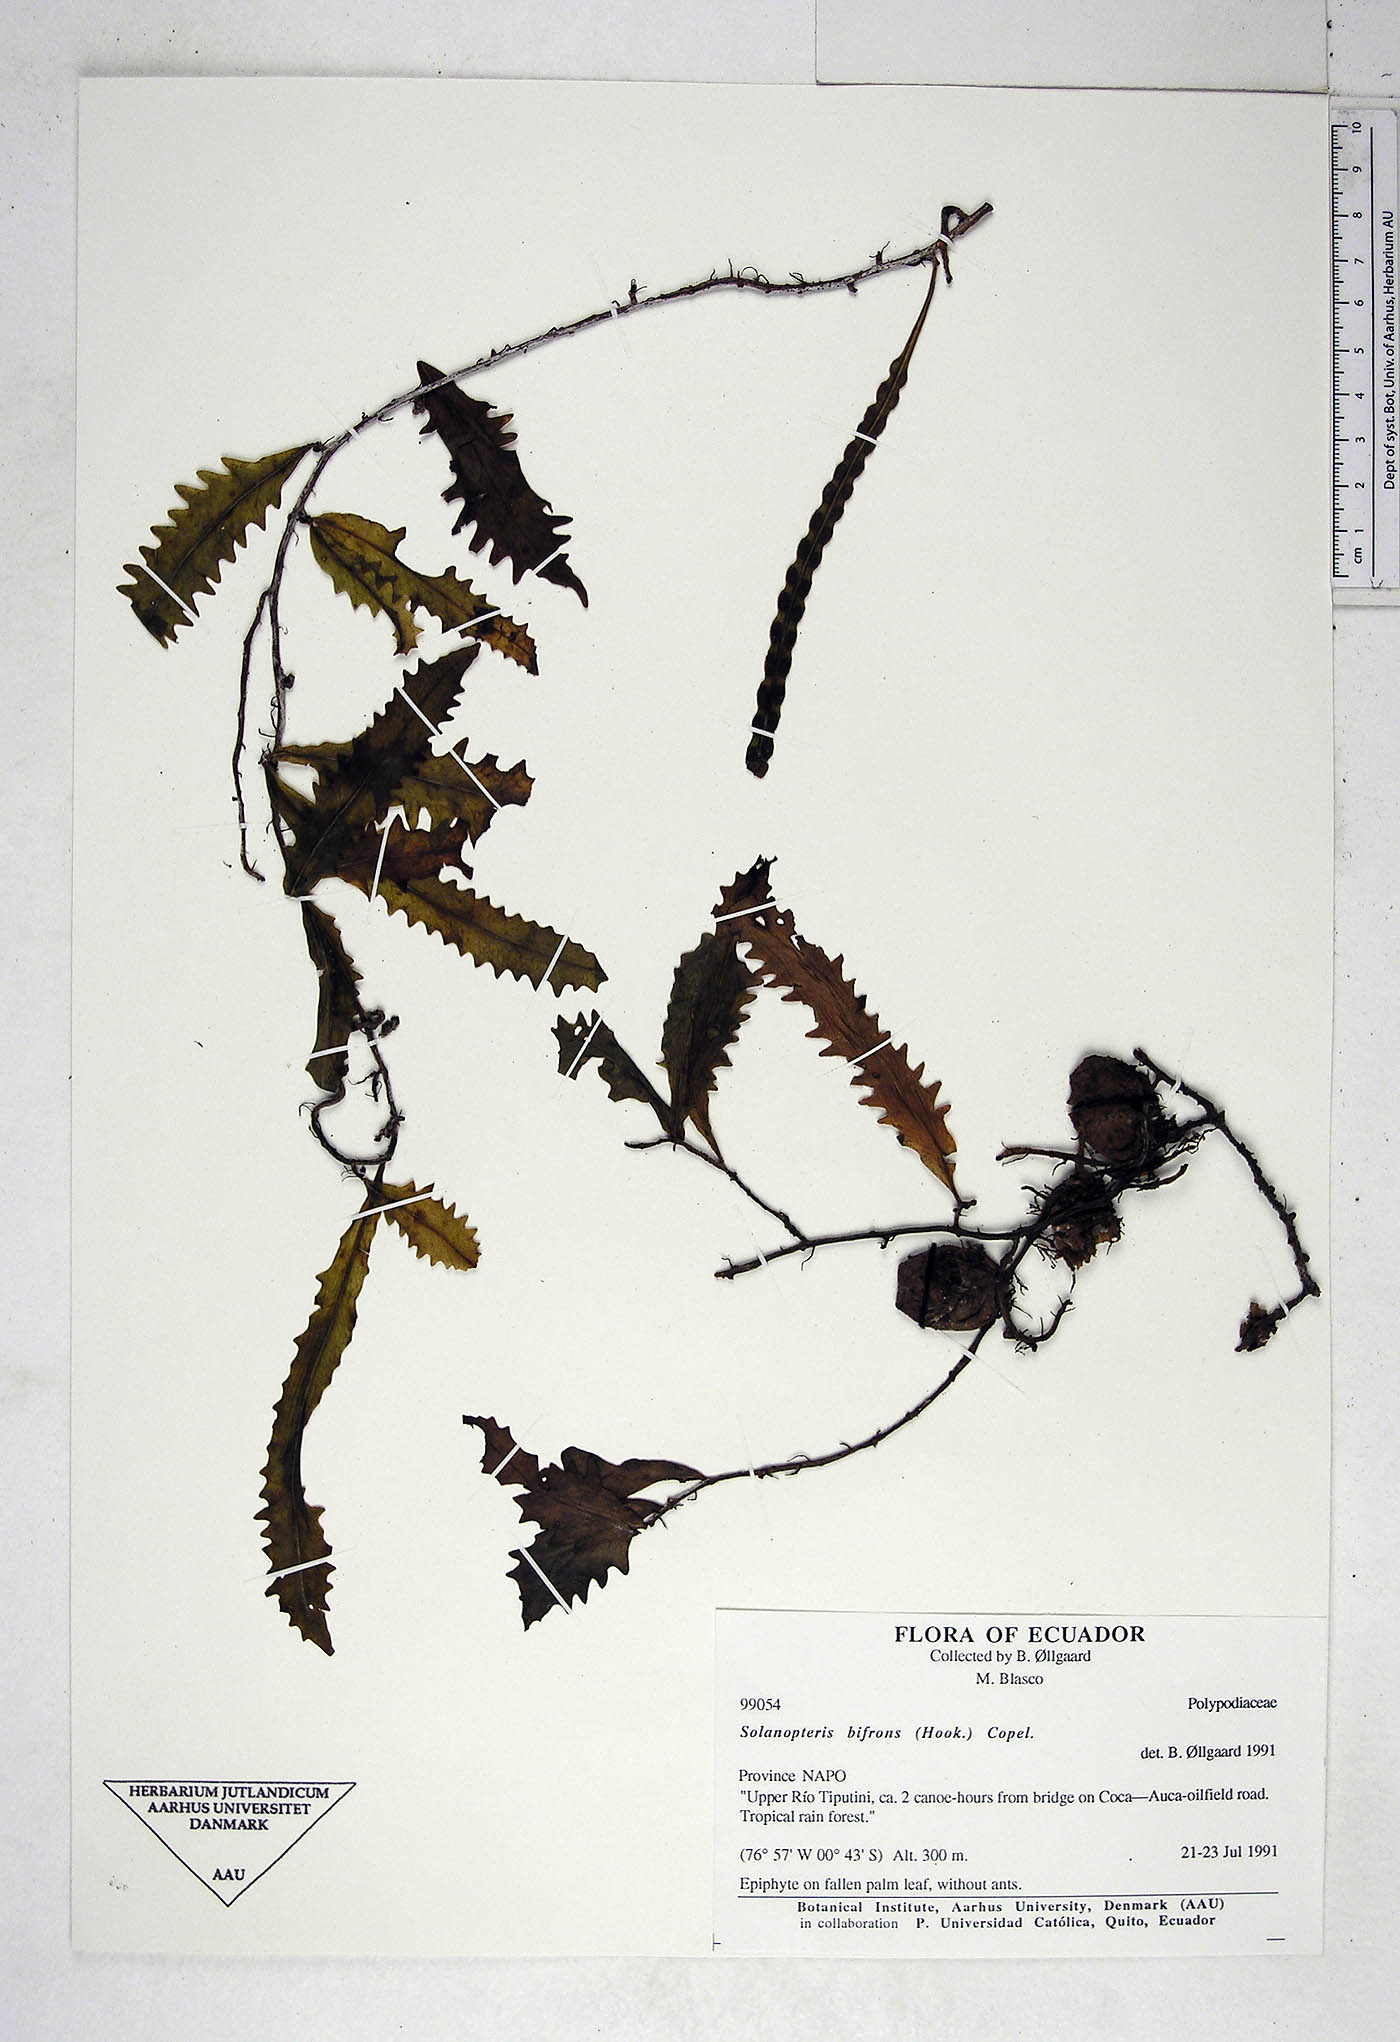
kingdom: Plantae
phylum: Tracheophyta
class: Polypodiopsida
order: Polypodiales
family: Polypodiaceae
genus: Microgramma
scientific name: Microgramma bifrons
